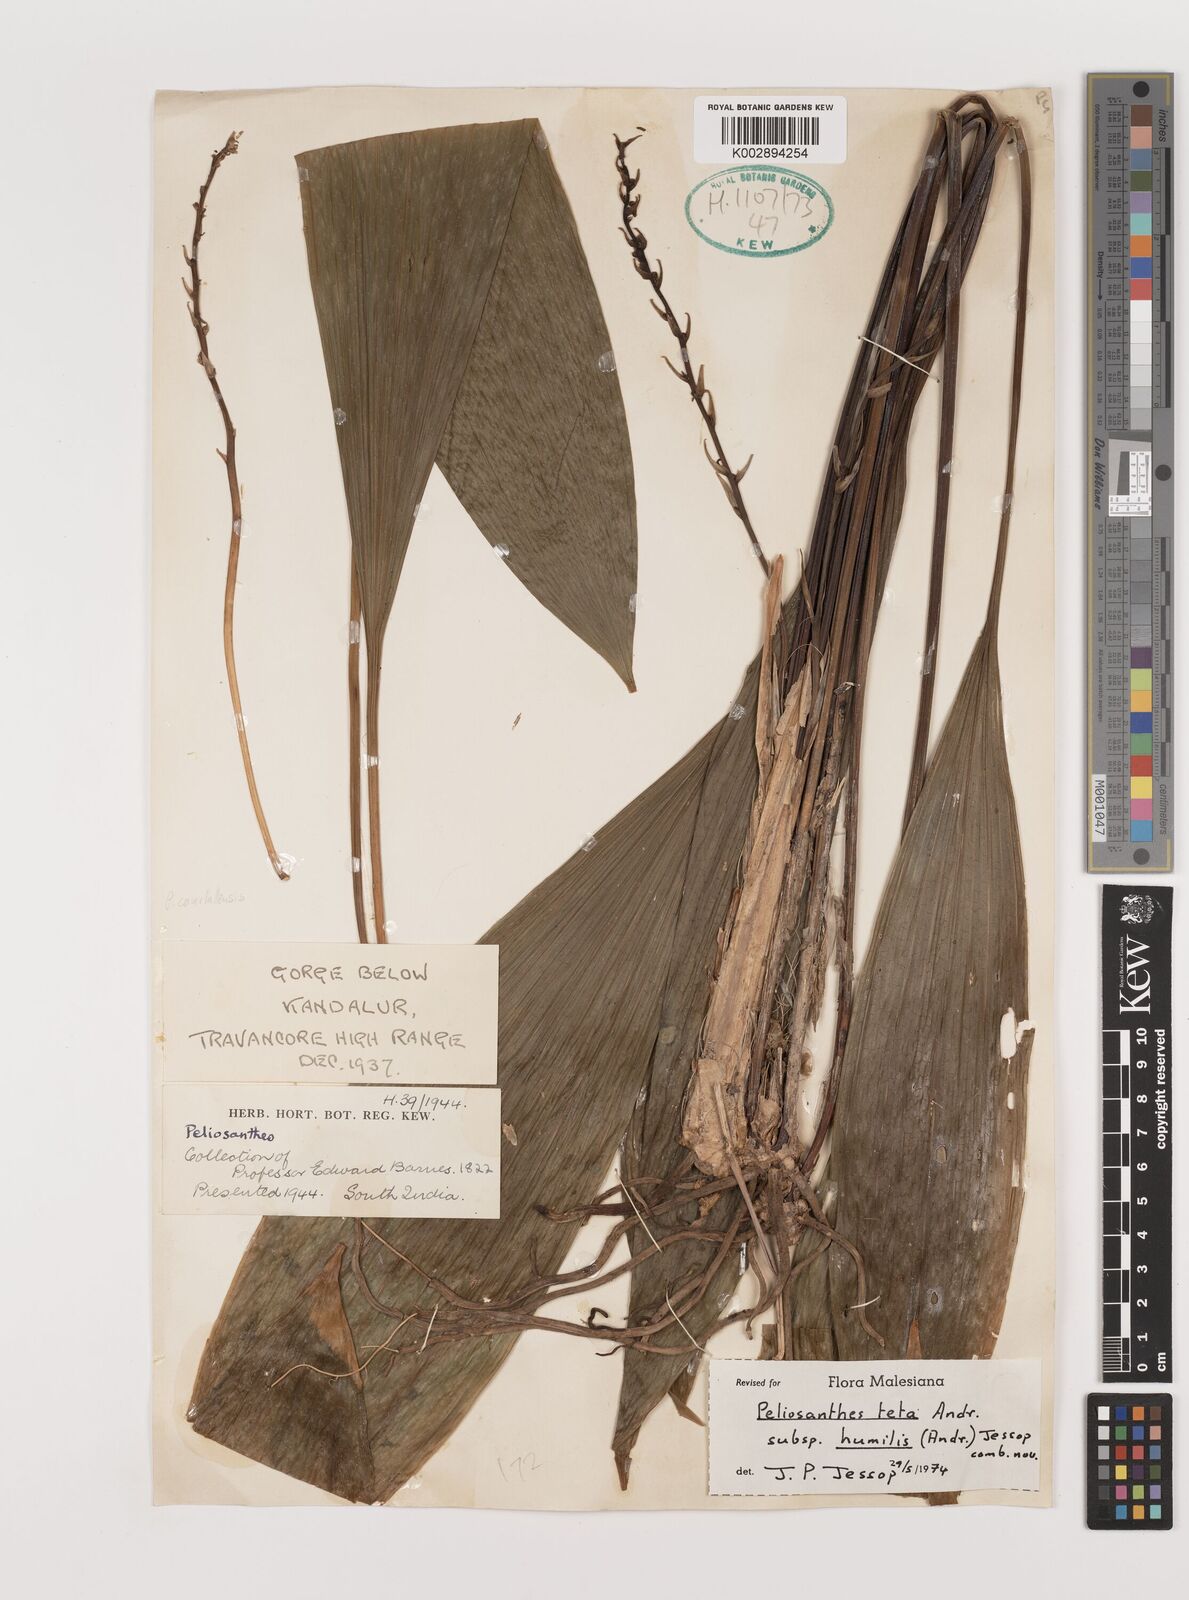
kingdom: Plantae
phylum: Tracheophyta
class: Liliopsida
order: Asparagales
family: Asparagaceae
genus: Peliosanthes
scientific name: Peliosanthes teta
